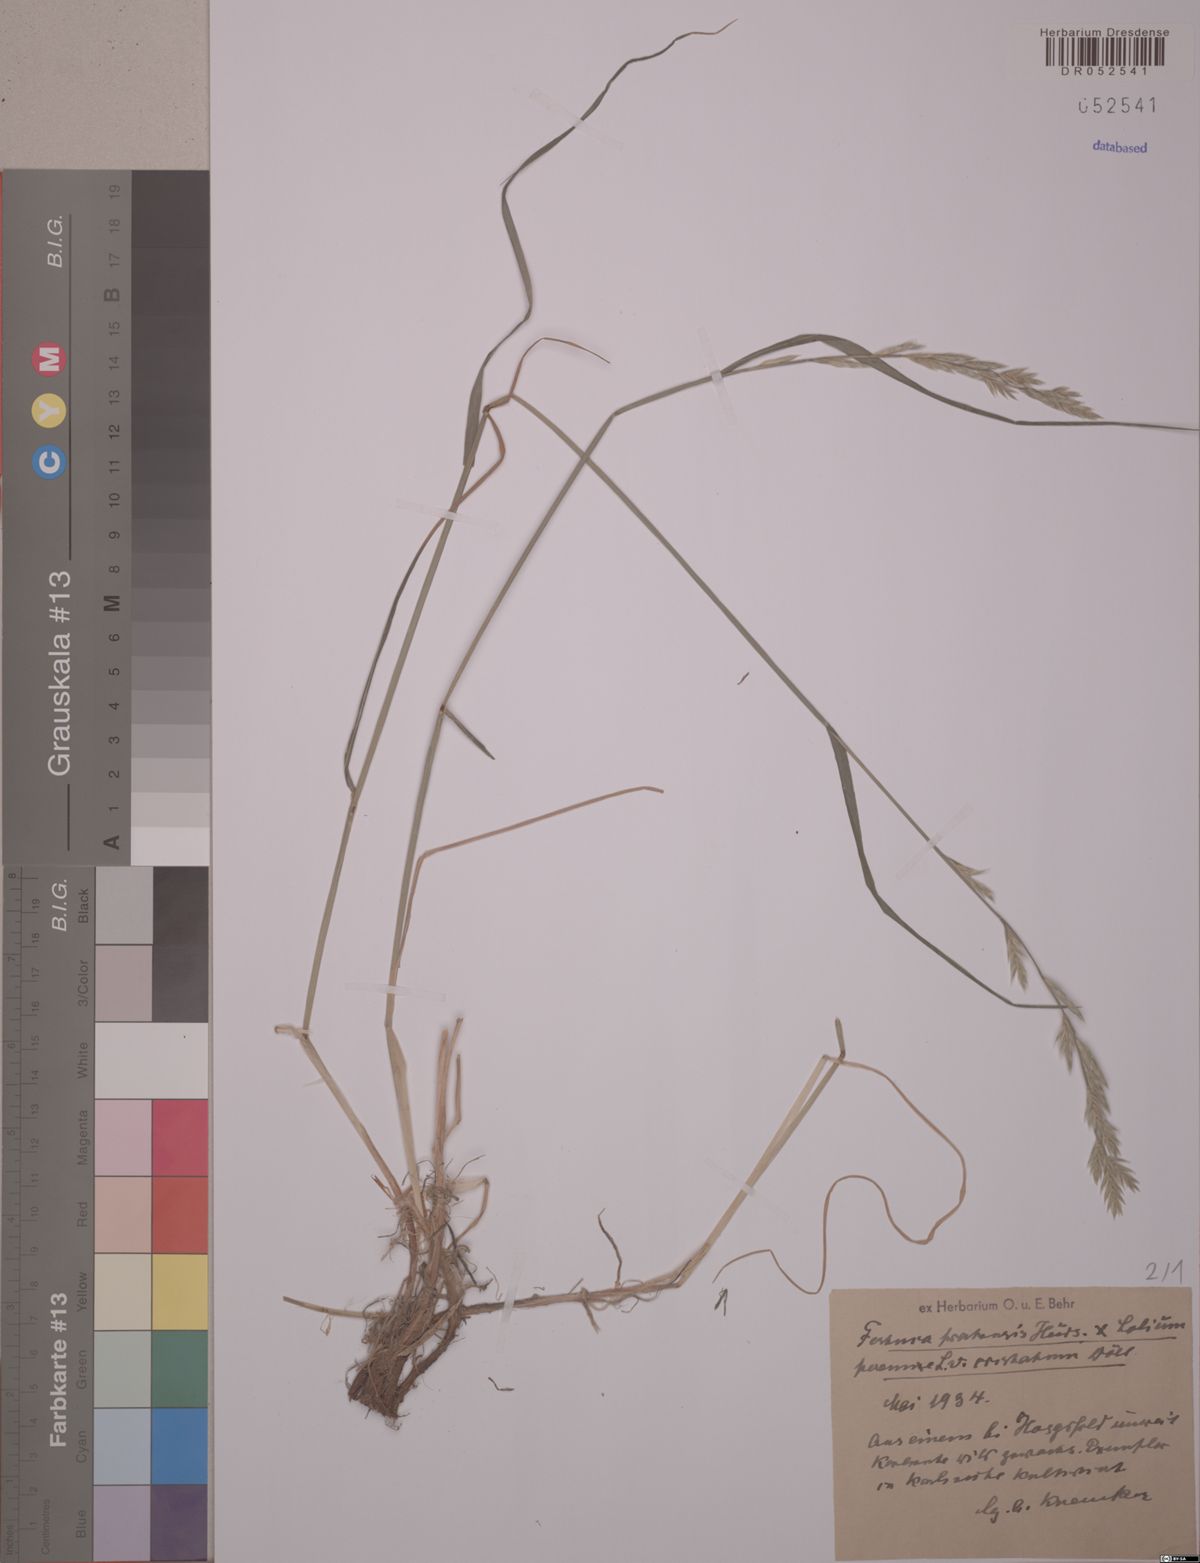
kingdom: Plantae
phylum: Tracheophyta
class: Liliopsida
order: Poales
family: Poaceae
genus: Lolium
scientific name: Lolium elongatum
